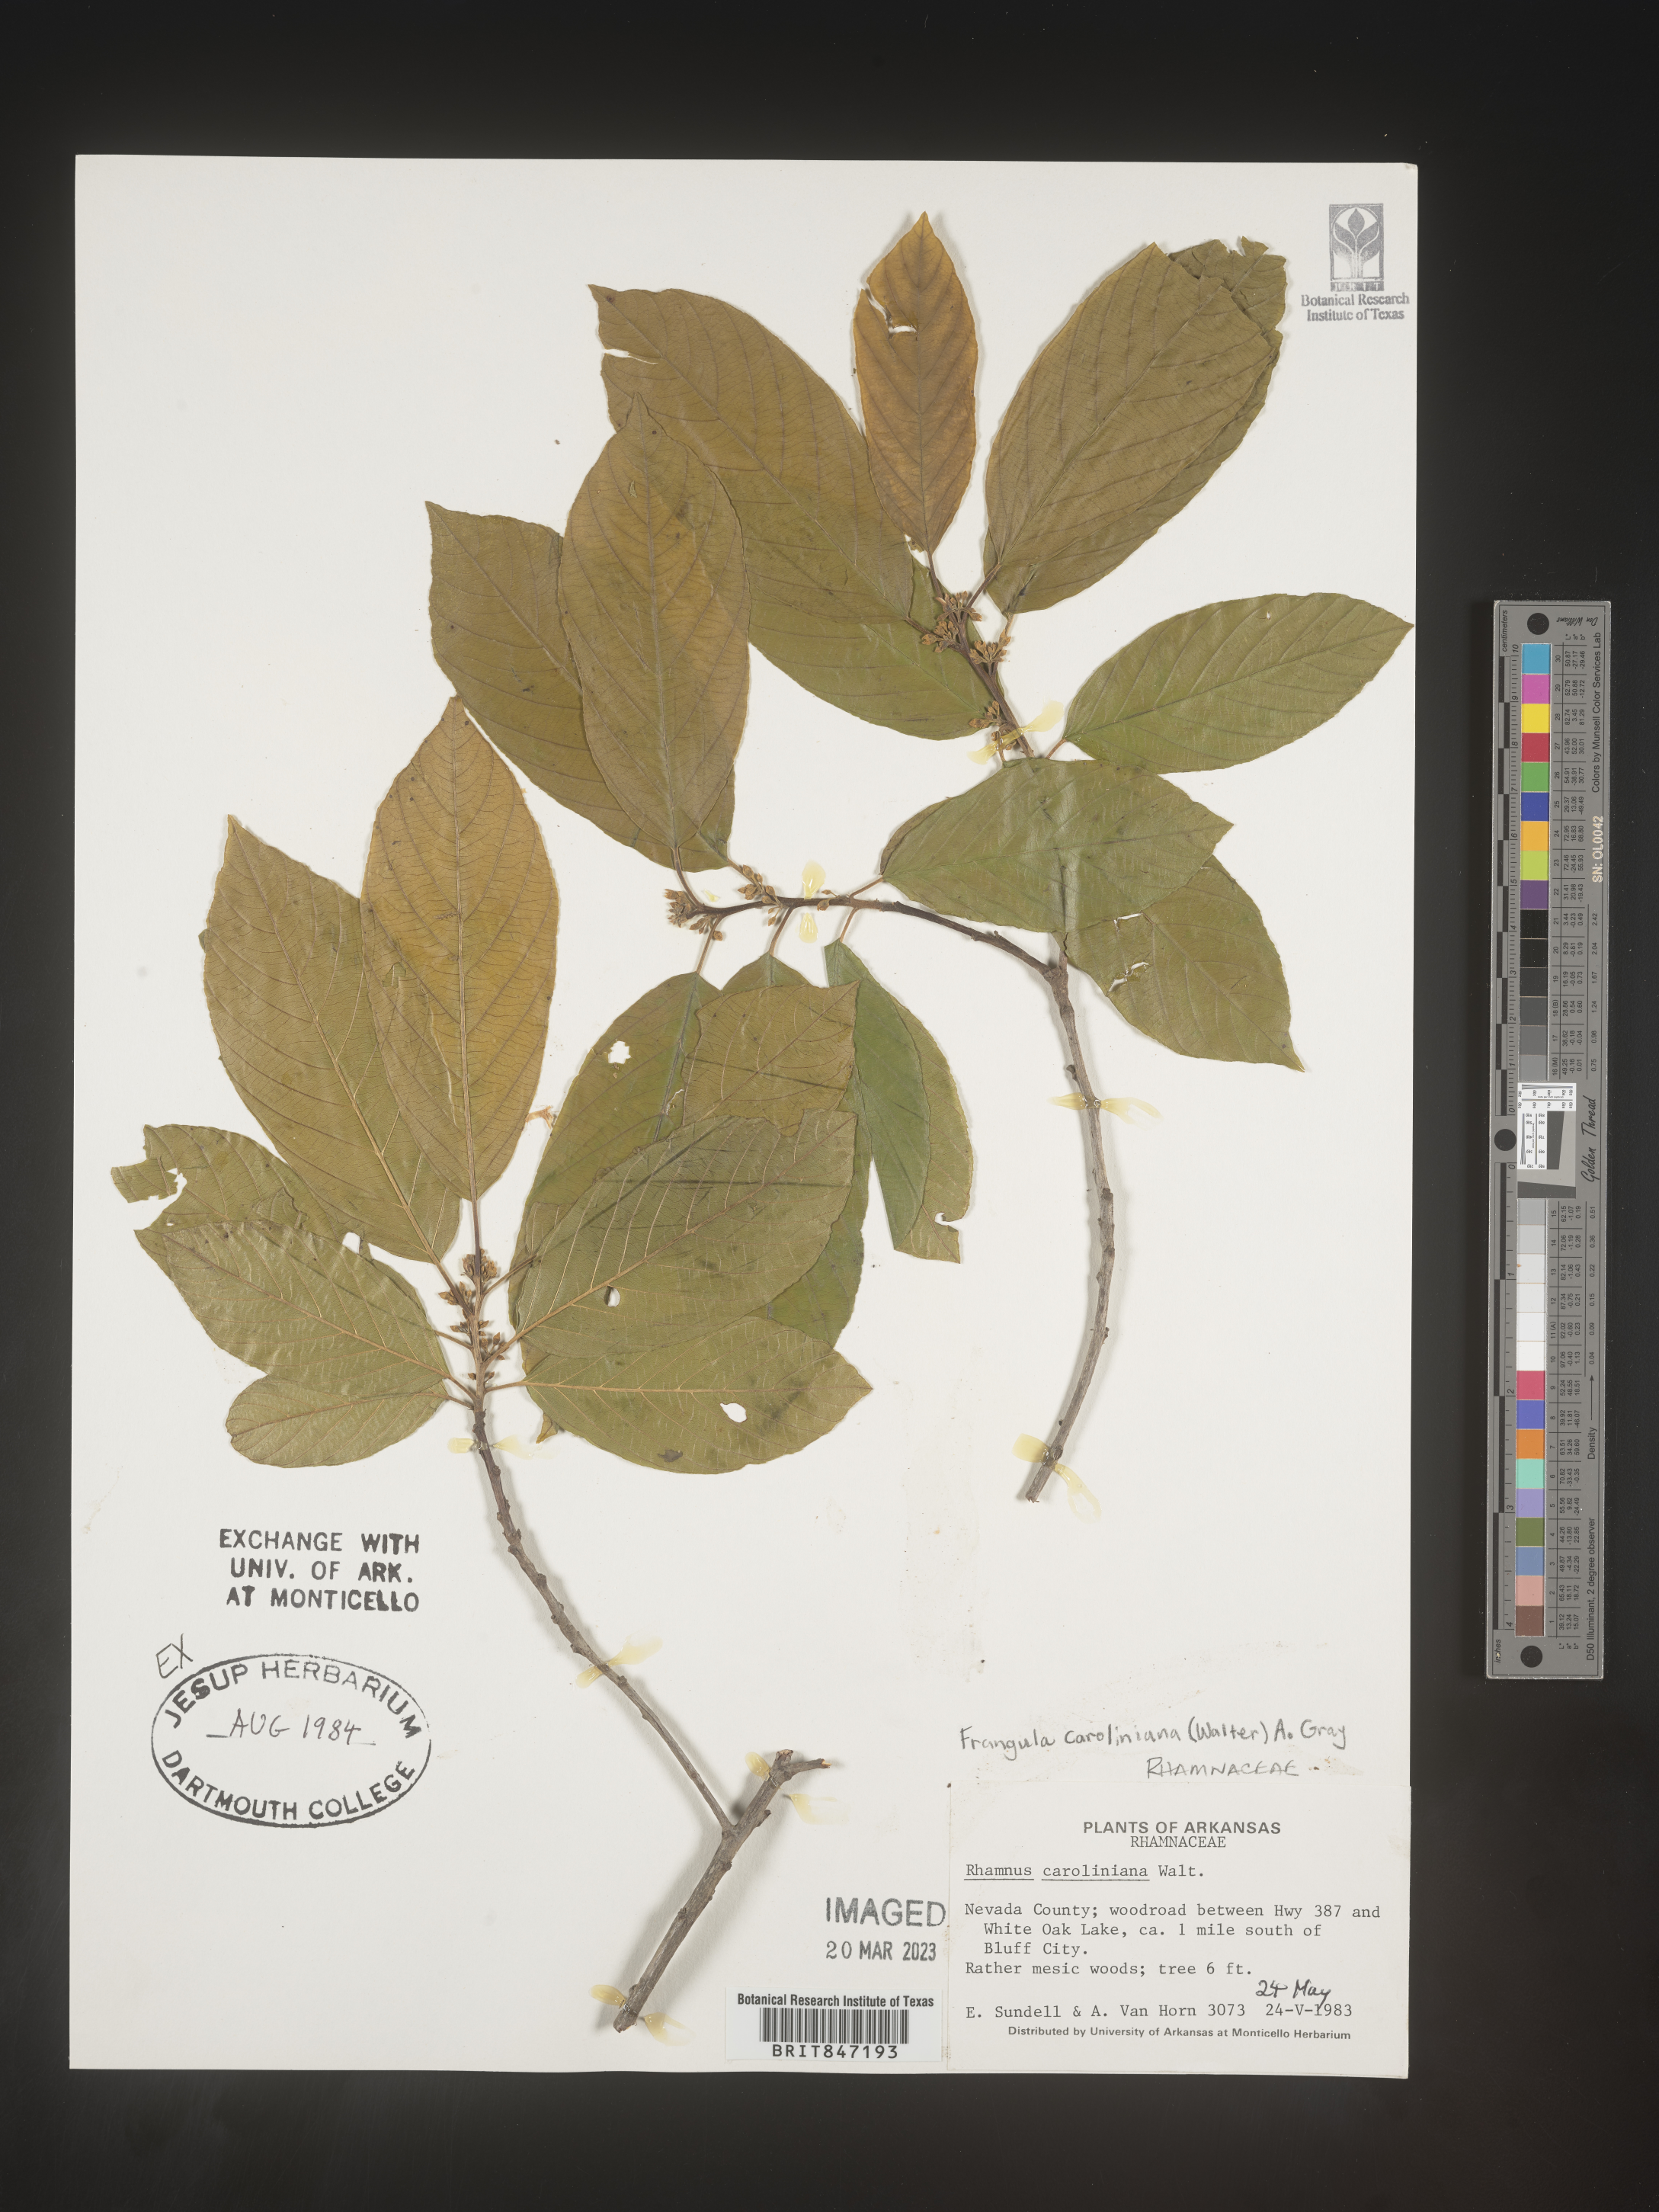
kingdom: Plantae
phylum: Tracheophyta
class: Magnoliopsida
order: Rosales
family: Rhamnaceae
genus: Frangula
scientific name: Frangula
